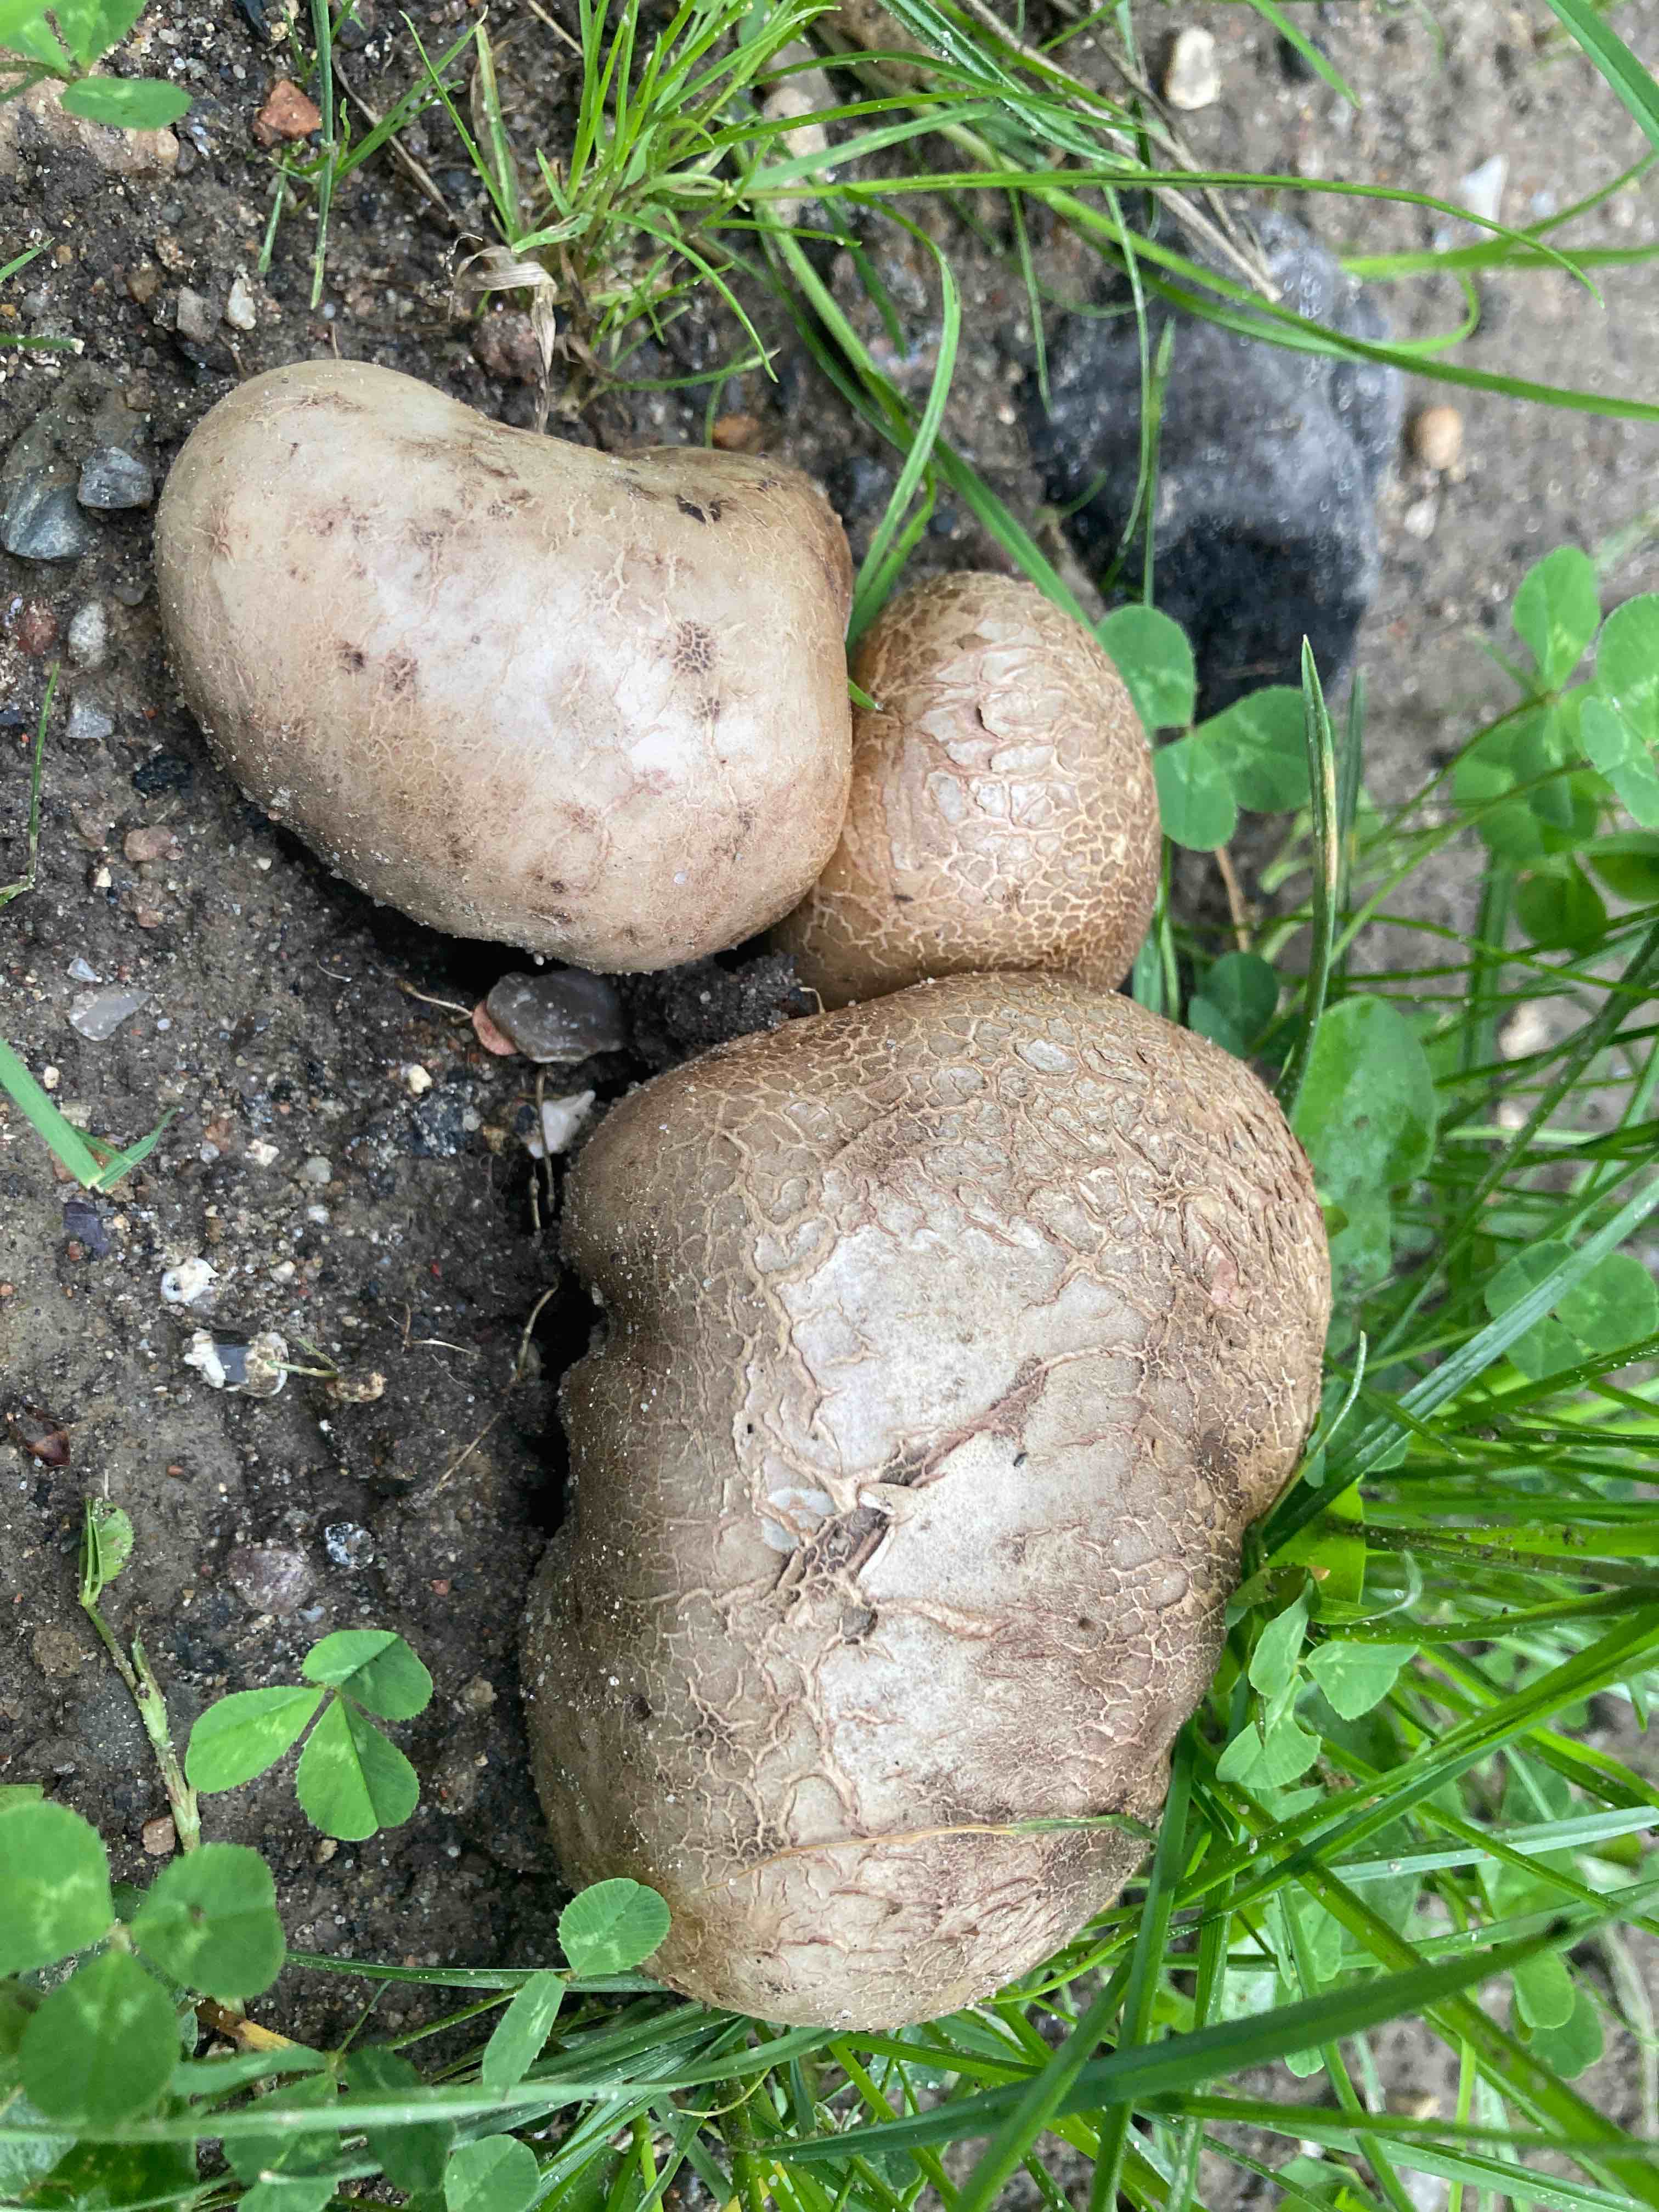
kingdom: Fungi
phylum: Basidiomycota
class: Agaricomycetes
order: Boletales
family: Sclerodermataceae
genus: Scleroderma
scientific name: Scleroderma bovista
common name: bovist-bruskbold
